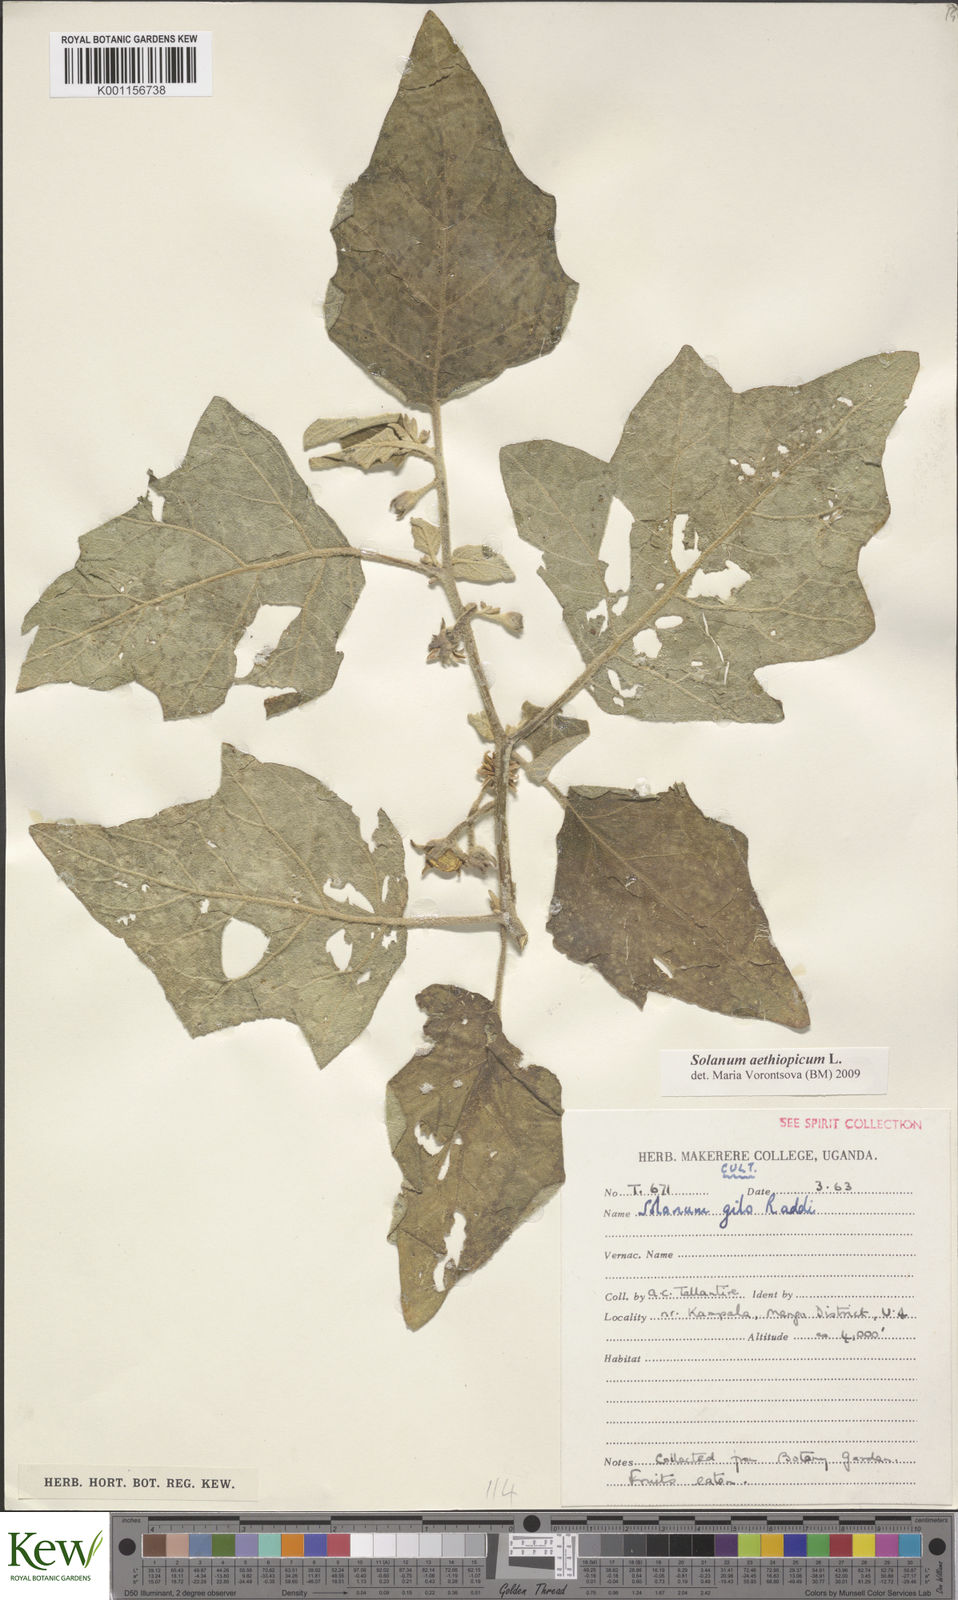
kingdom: Plantae
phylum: Tracheophyta
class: Magnoliopsida
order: Solanales
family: Solanaceae
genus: Solanum
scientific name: Solanum aethiopicum
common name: Gilo
